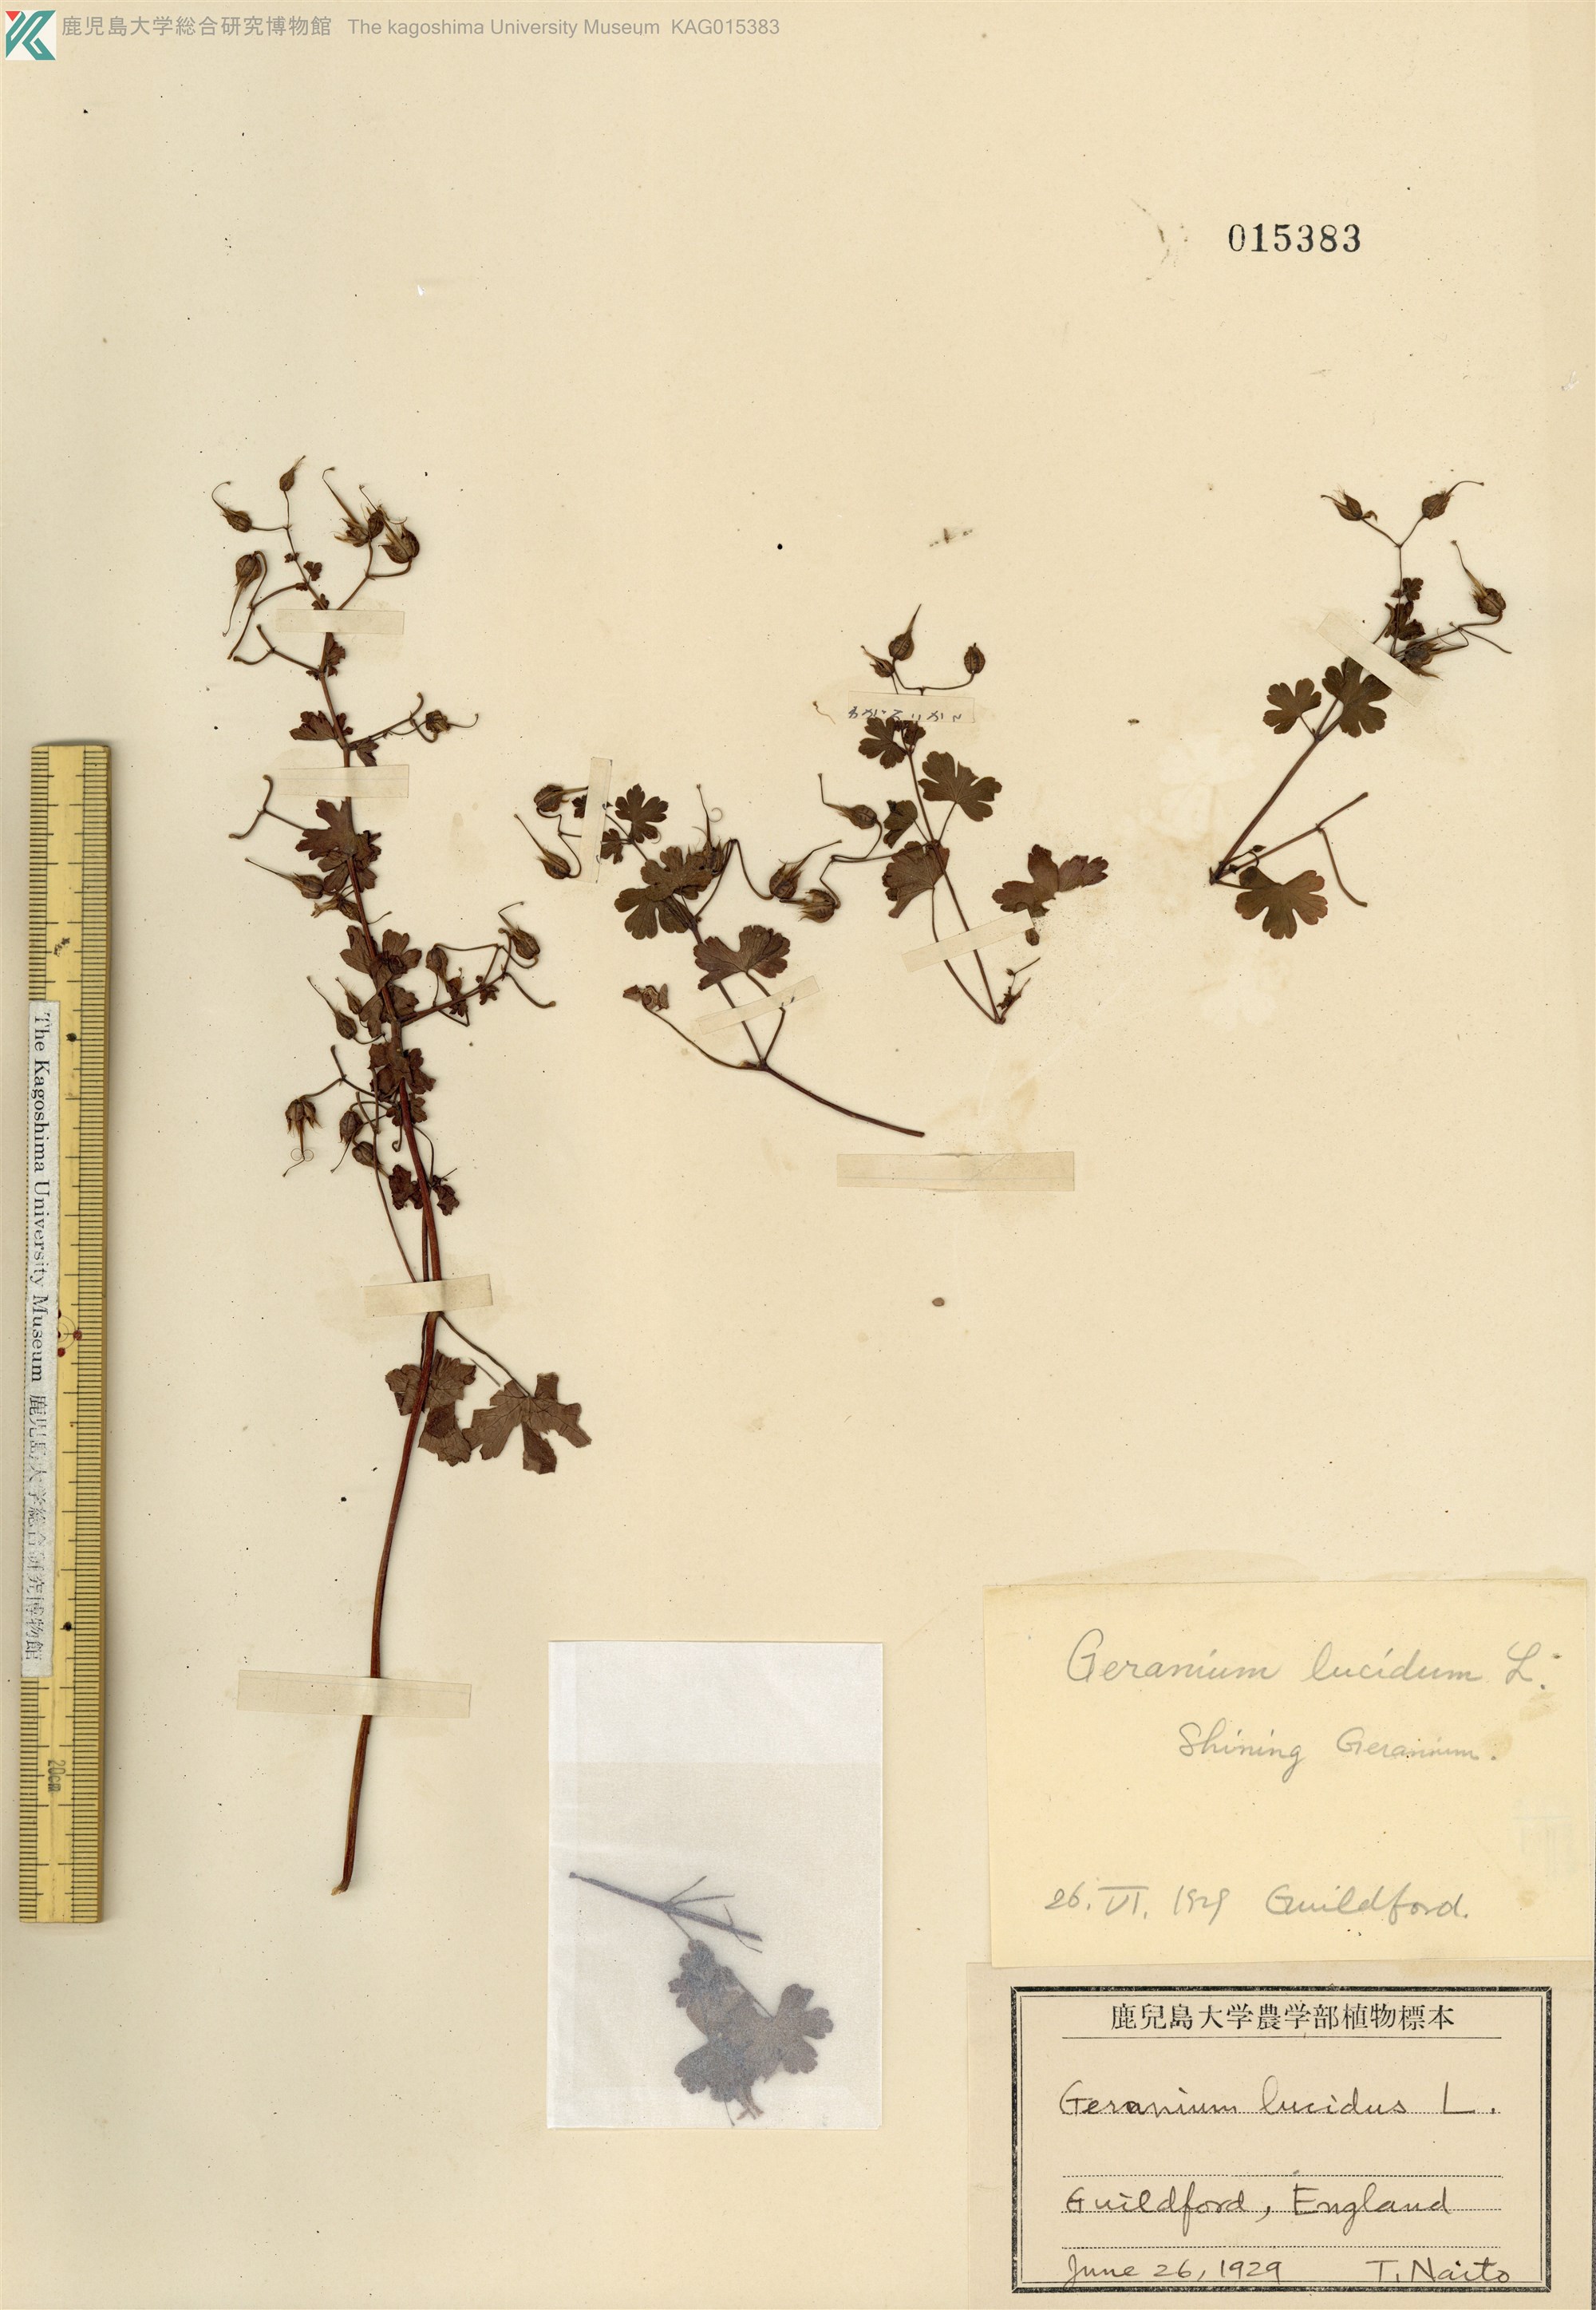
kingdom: Plantae
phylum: Tracheophyta
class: Magnoliopsida
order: Geraniales
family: Geraniaceae
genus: Geranium
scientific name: Geranium lucidum
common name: Shining crane's-bill
